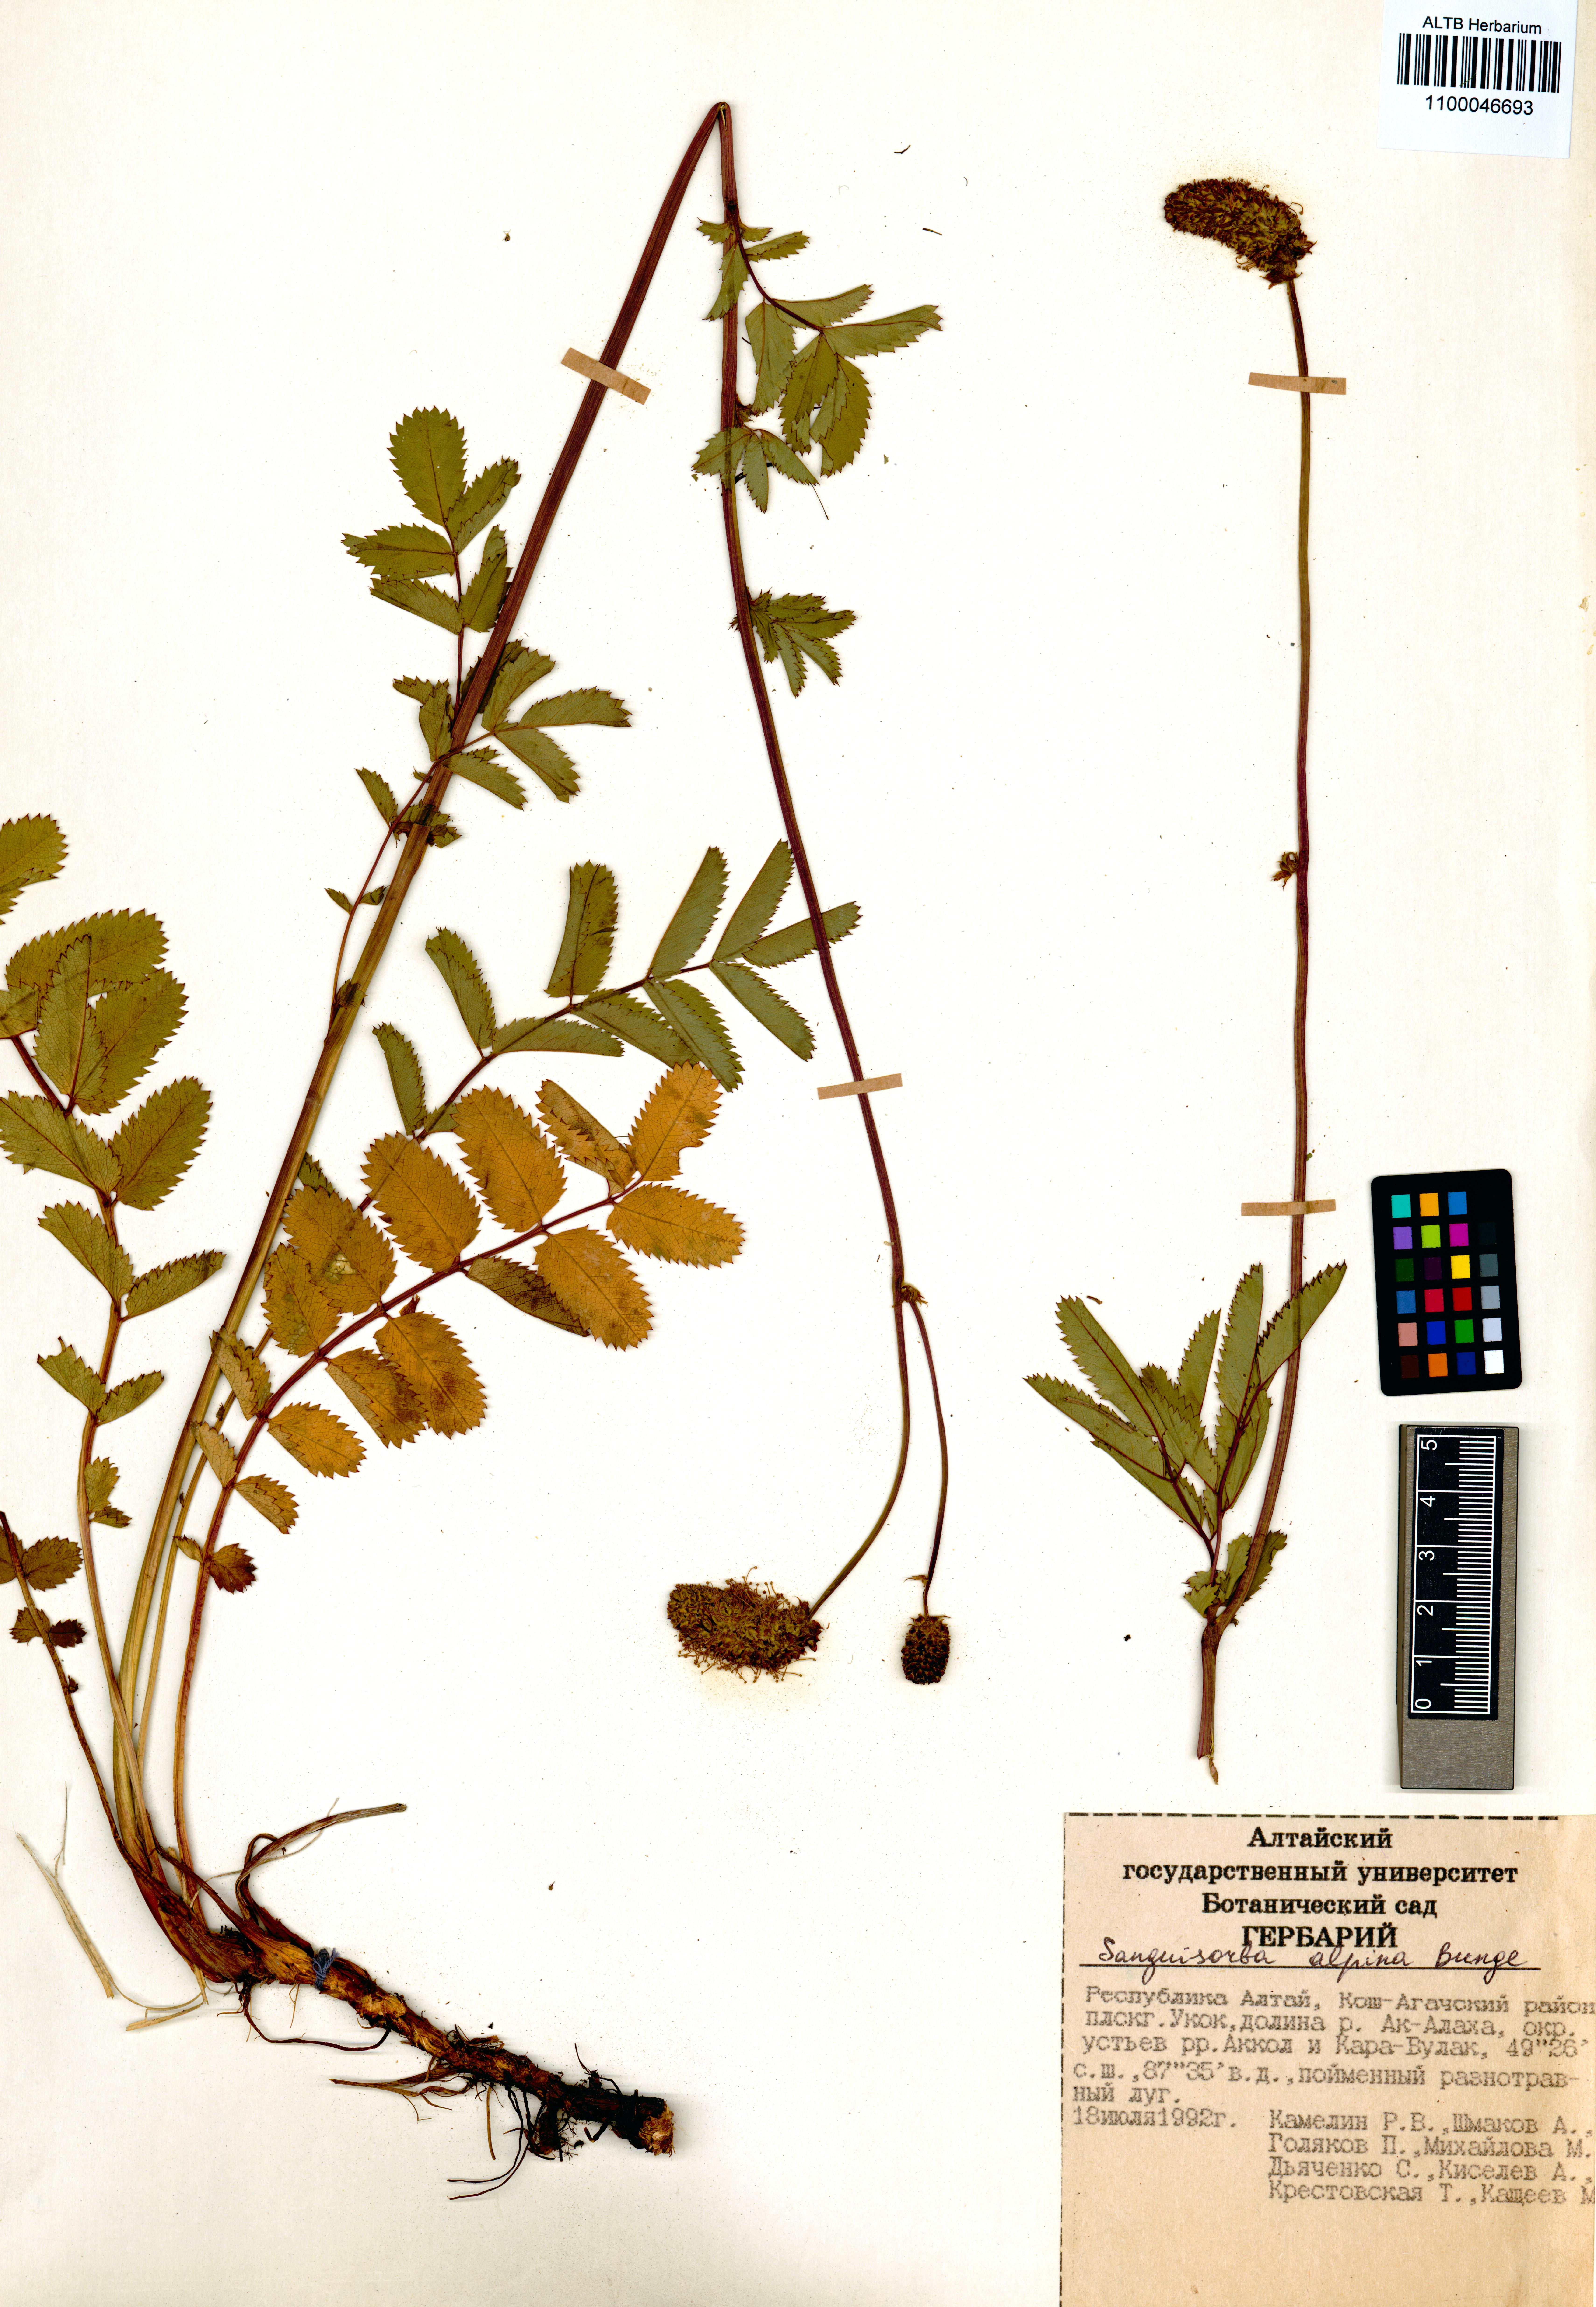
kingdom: Plantae
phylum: Tracheophyta
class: Magnoliopsida
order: Rosales
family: Rosaceae
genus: Sanguisorba
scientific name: Sanguisorba alpina
